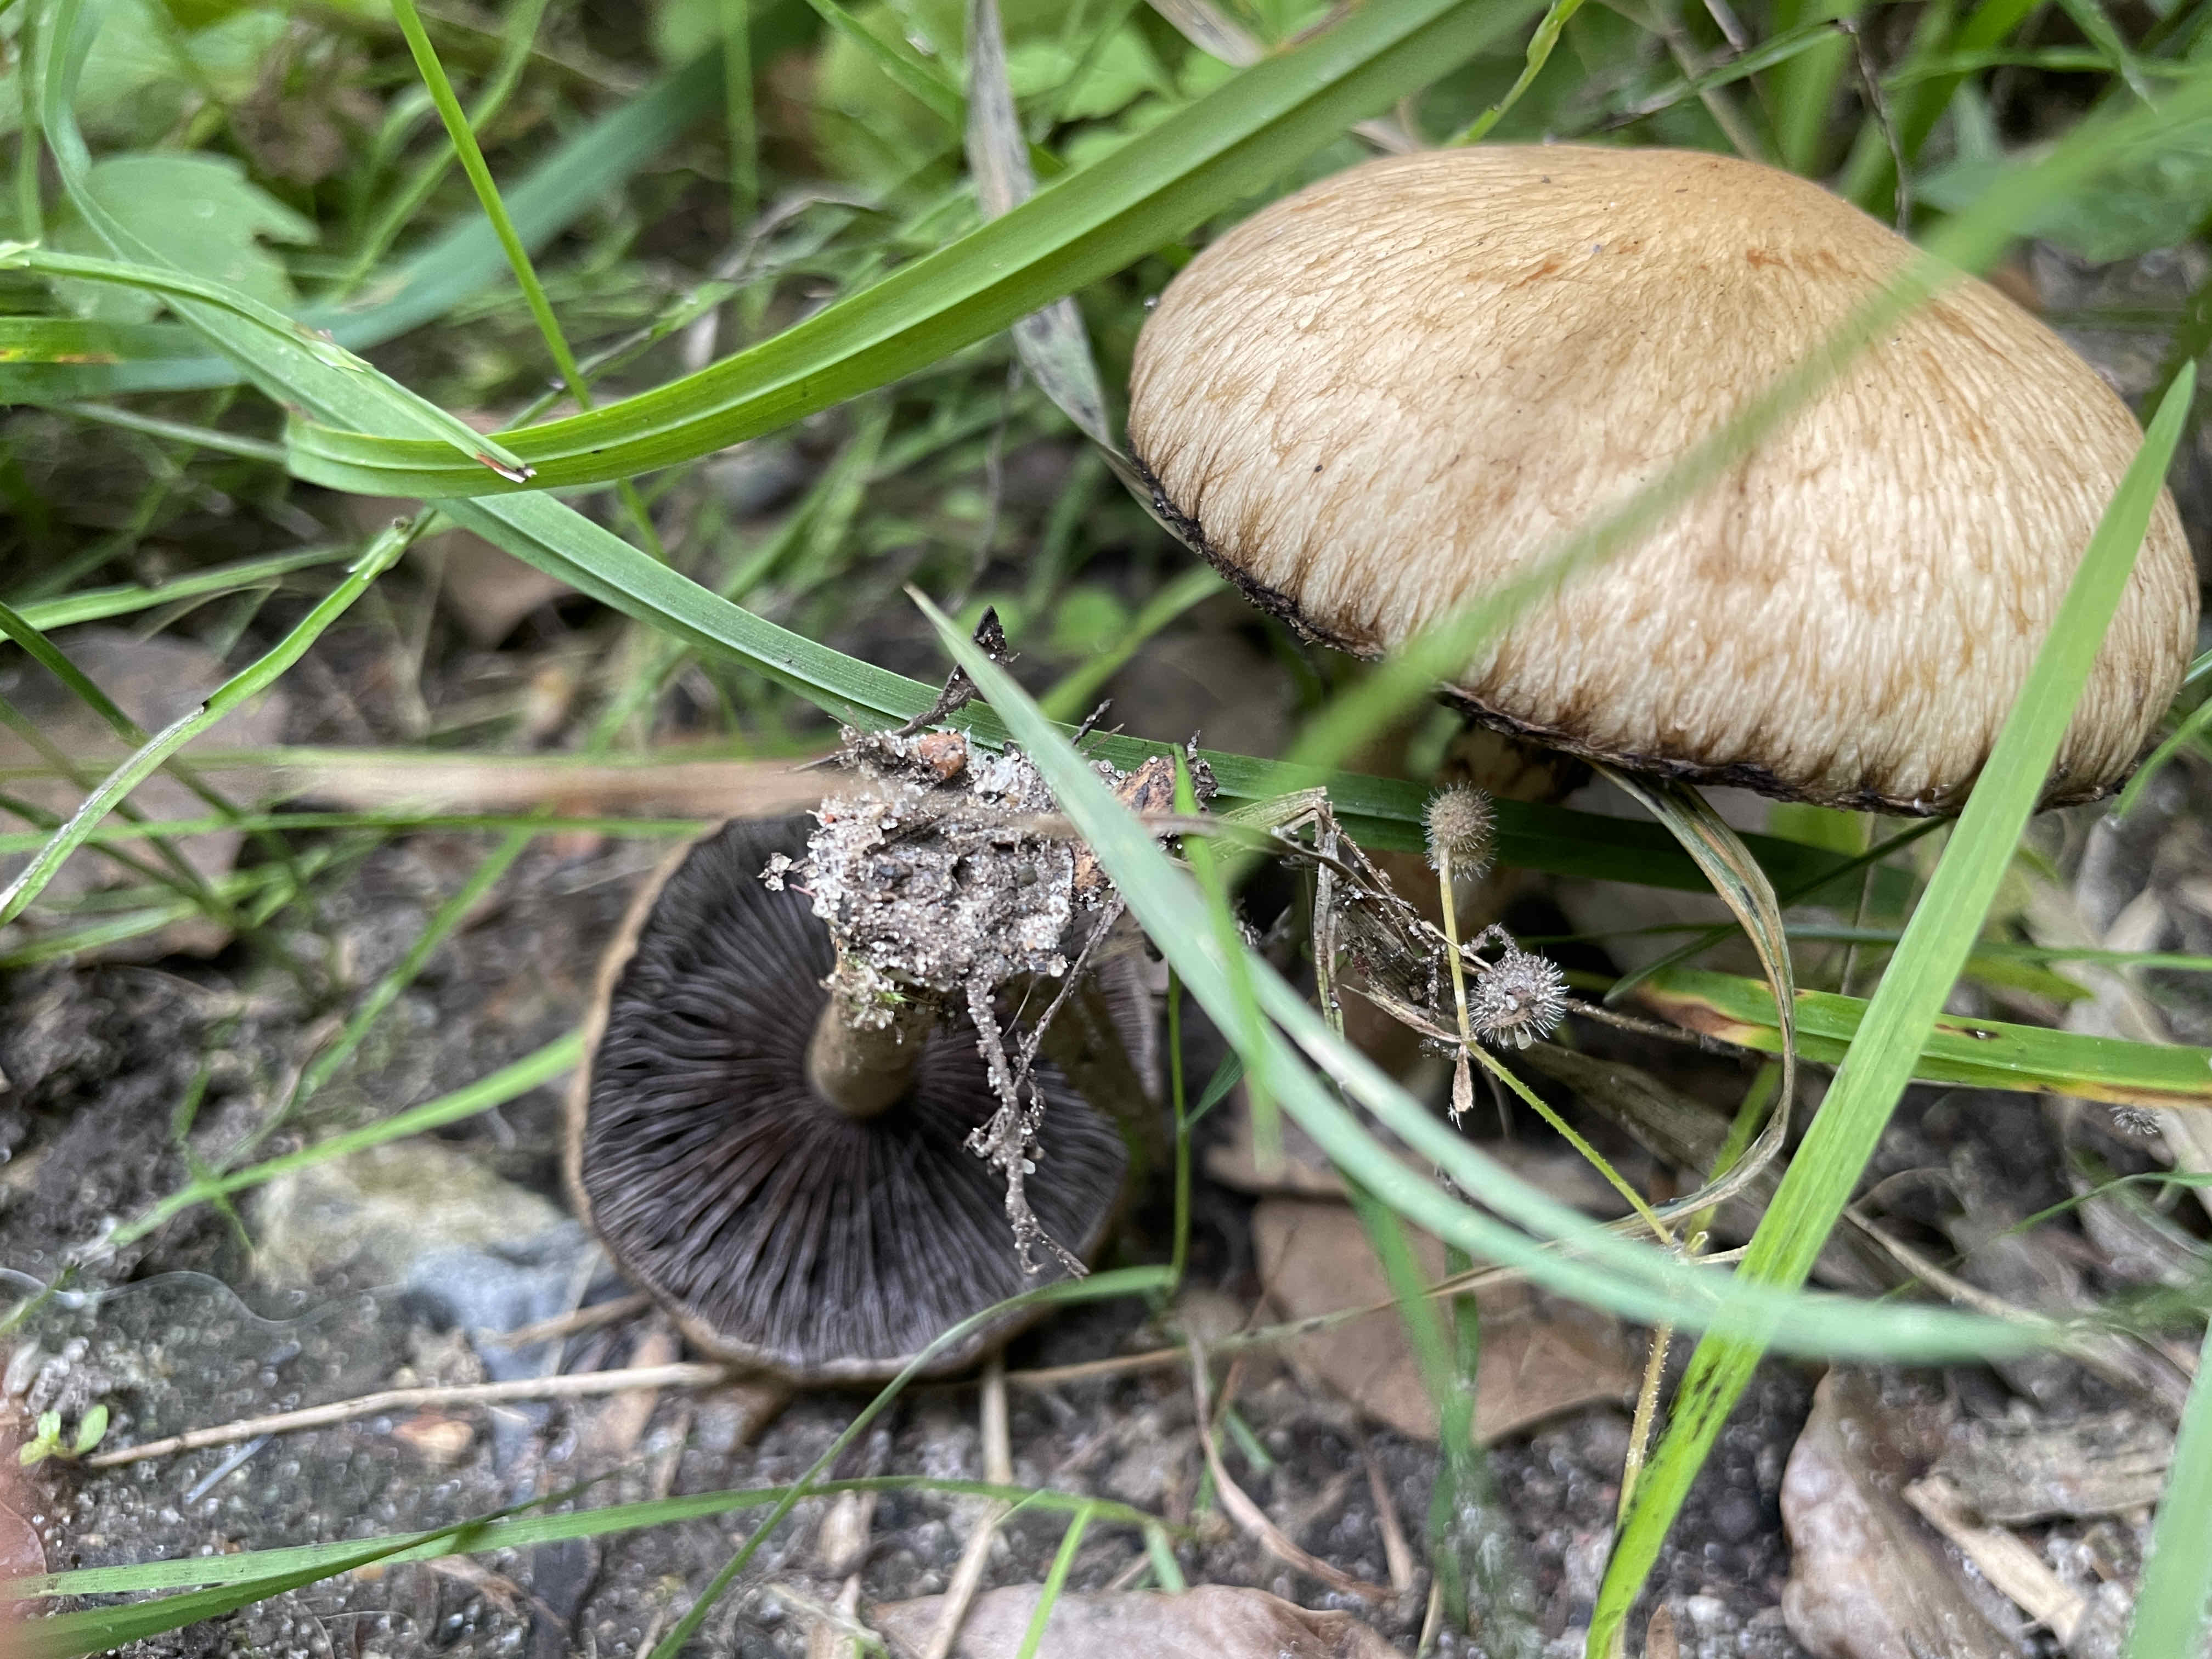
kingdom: Fungi
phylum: Basidiomycota
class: Agaricomycetes
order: Agaricales
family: Psathyrellaceae
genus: Lacrymaria
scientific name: Lacrymaria lacrymabunda
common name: grædende mørkhat
